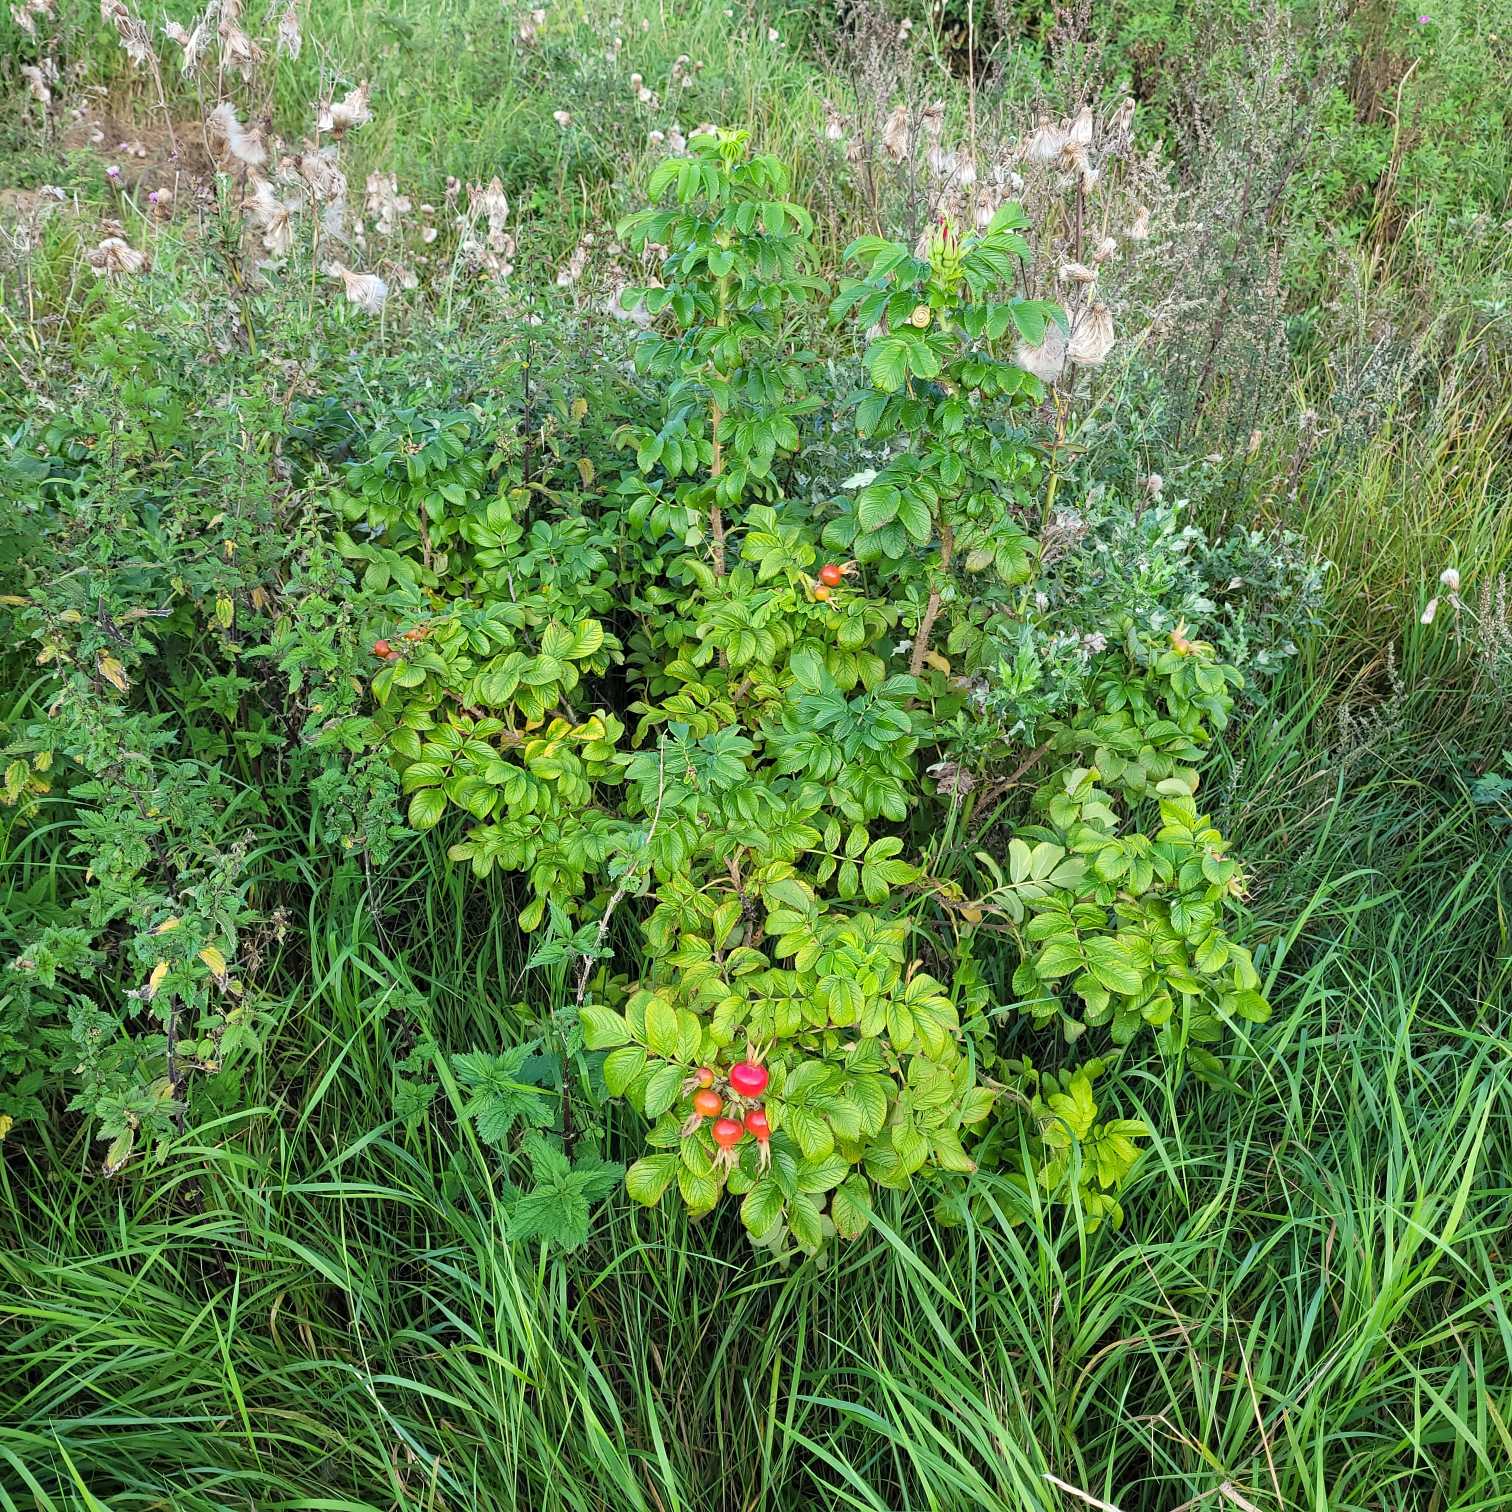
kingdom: Plantae
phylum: Tracheophyta
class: Magnoliopsida
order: Rosales
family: Rosaceae
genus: Rosa
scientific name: Rosa rugosa
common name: Rynket rose
